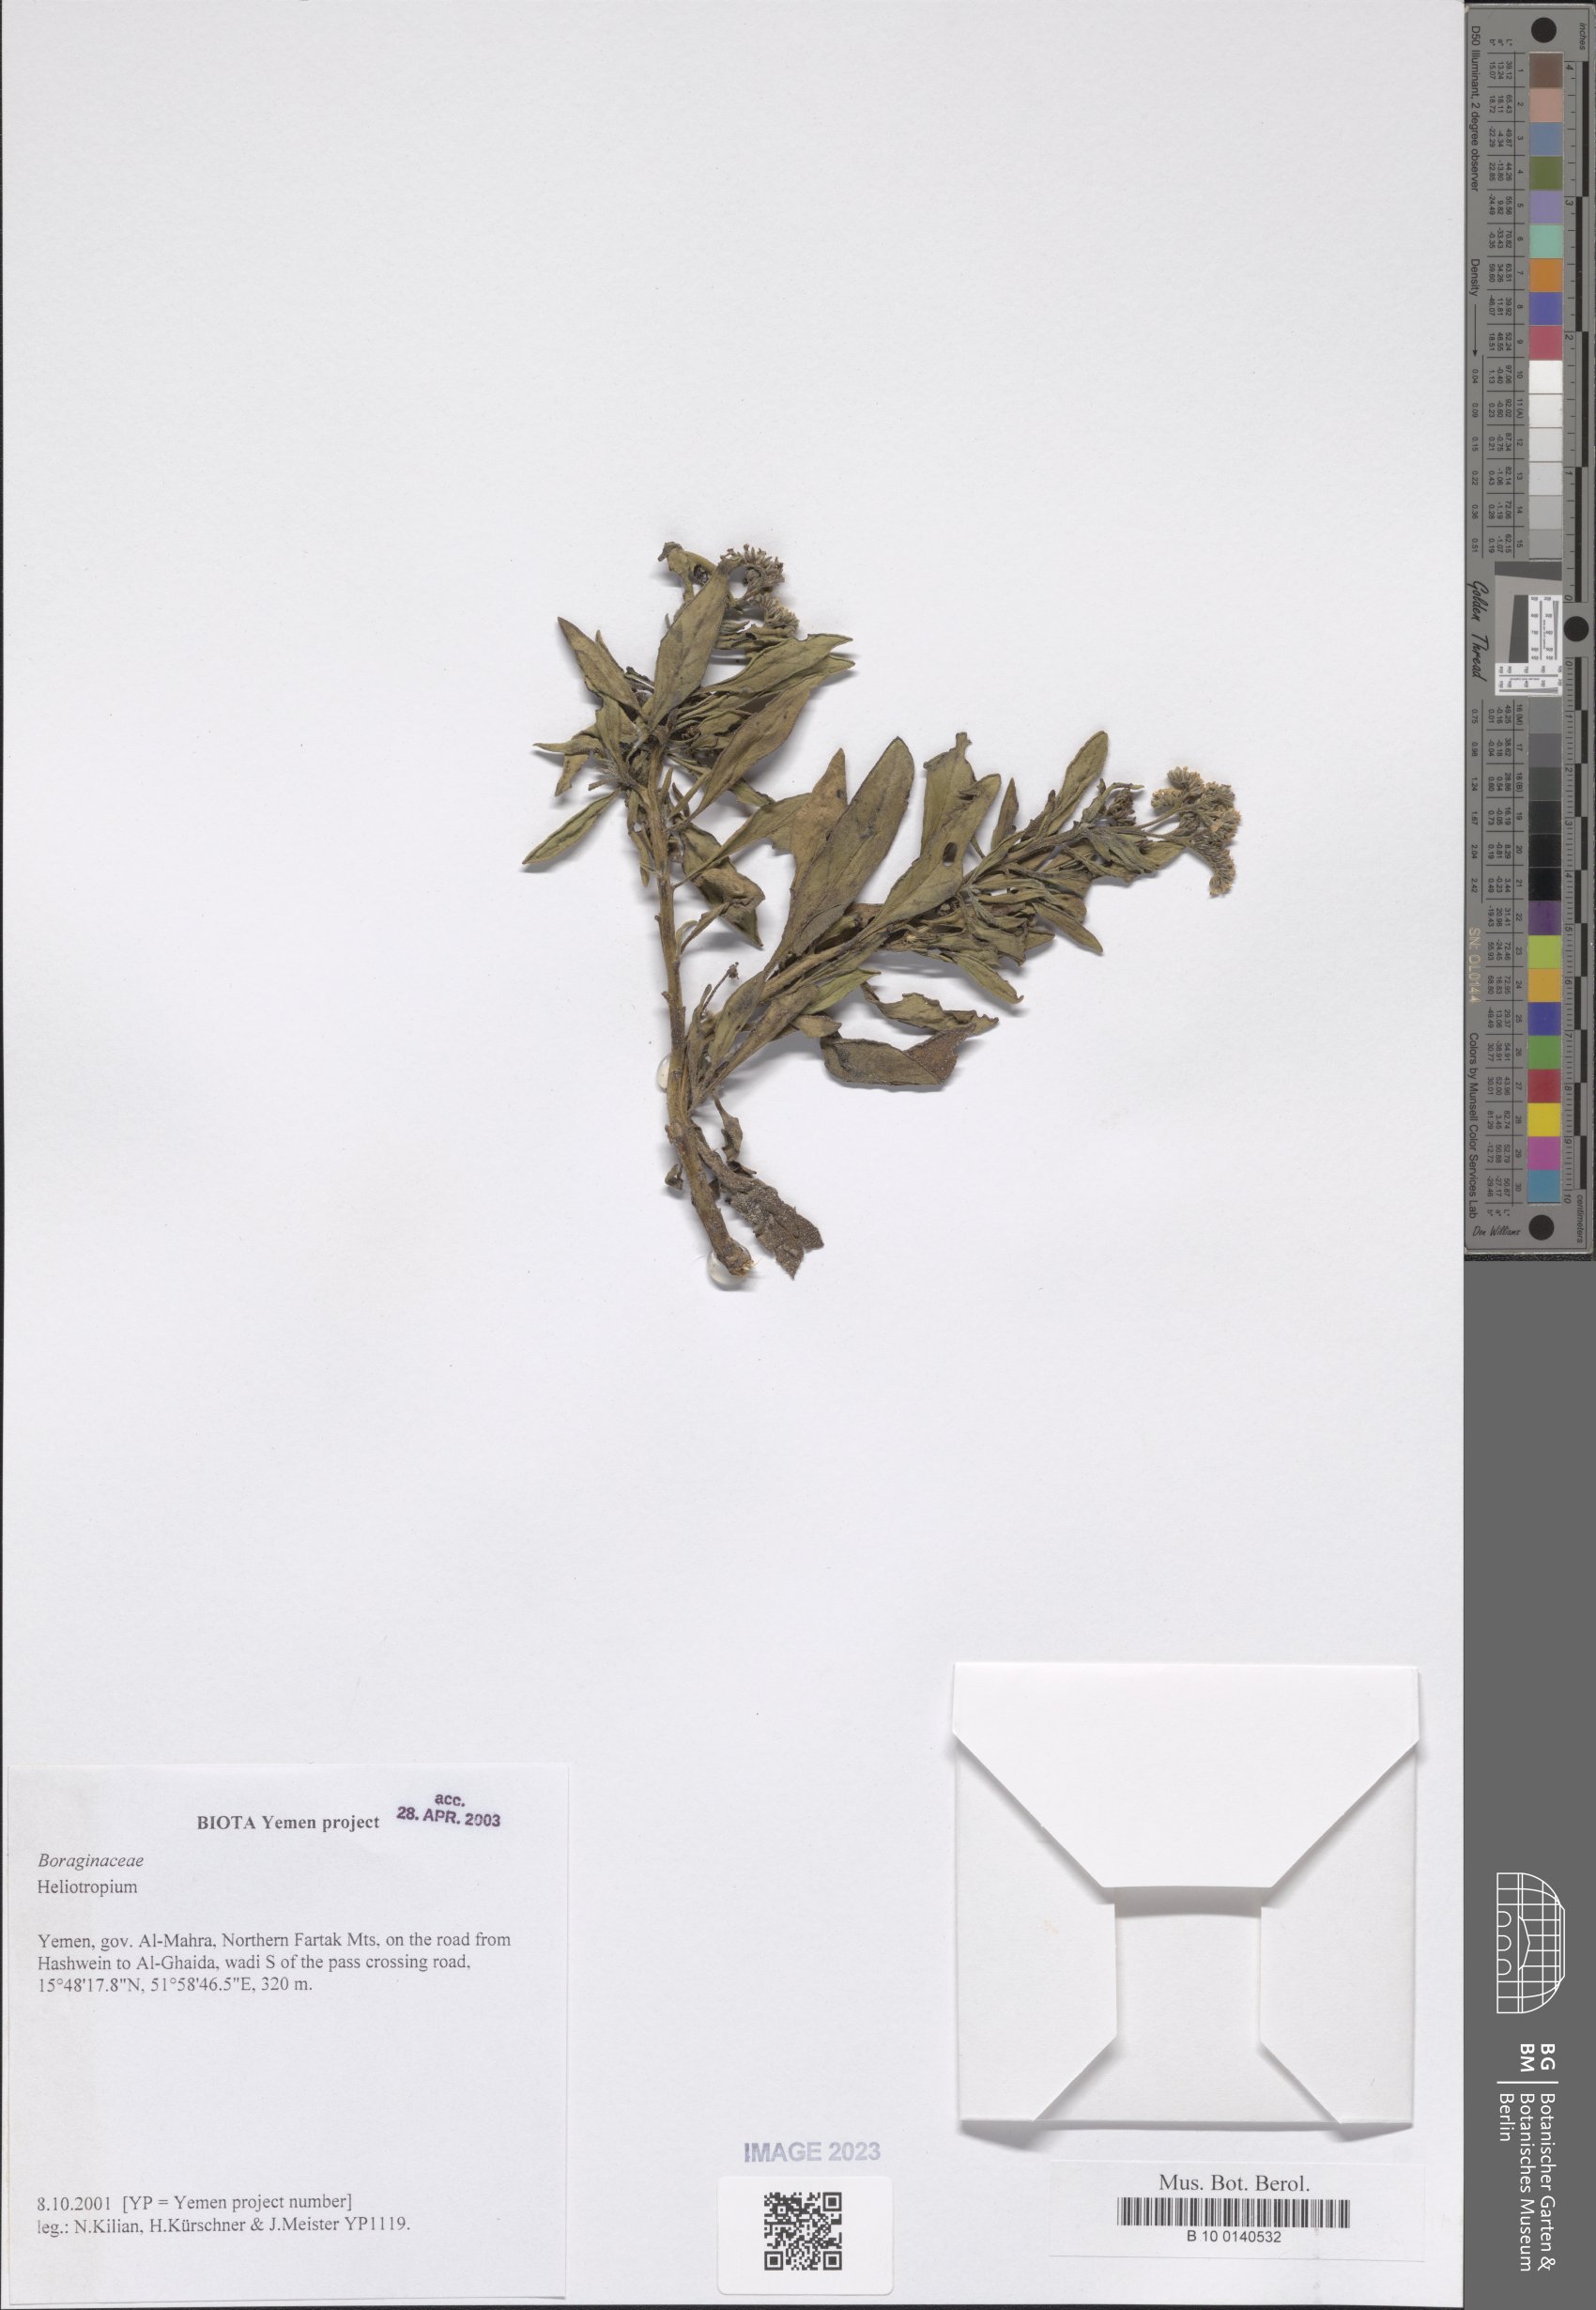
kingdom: Plantae
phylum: Tracheophyta
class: Magnoliopsida
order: Boraginales
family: Heliotropiaceae
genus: Heliotropium
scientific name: Heliotropium
